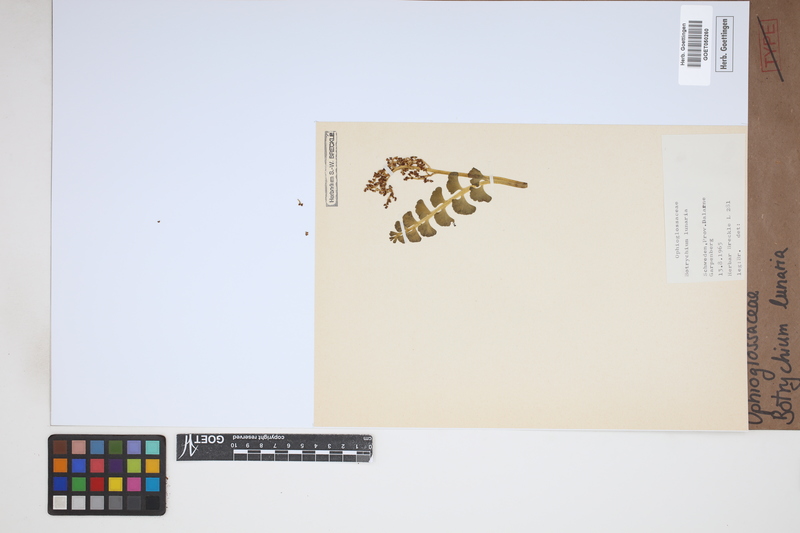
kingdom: Plantae
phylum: Tracheophyta
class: Polypodiopsida
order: Ophioglossales
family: Ophioglossaceae
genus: Botrychium
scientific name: Botrychium lunaria
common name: Moonwort
